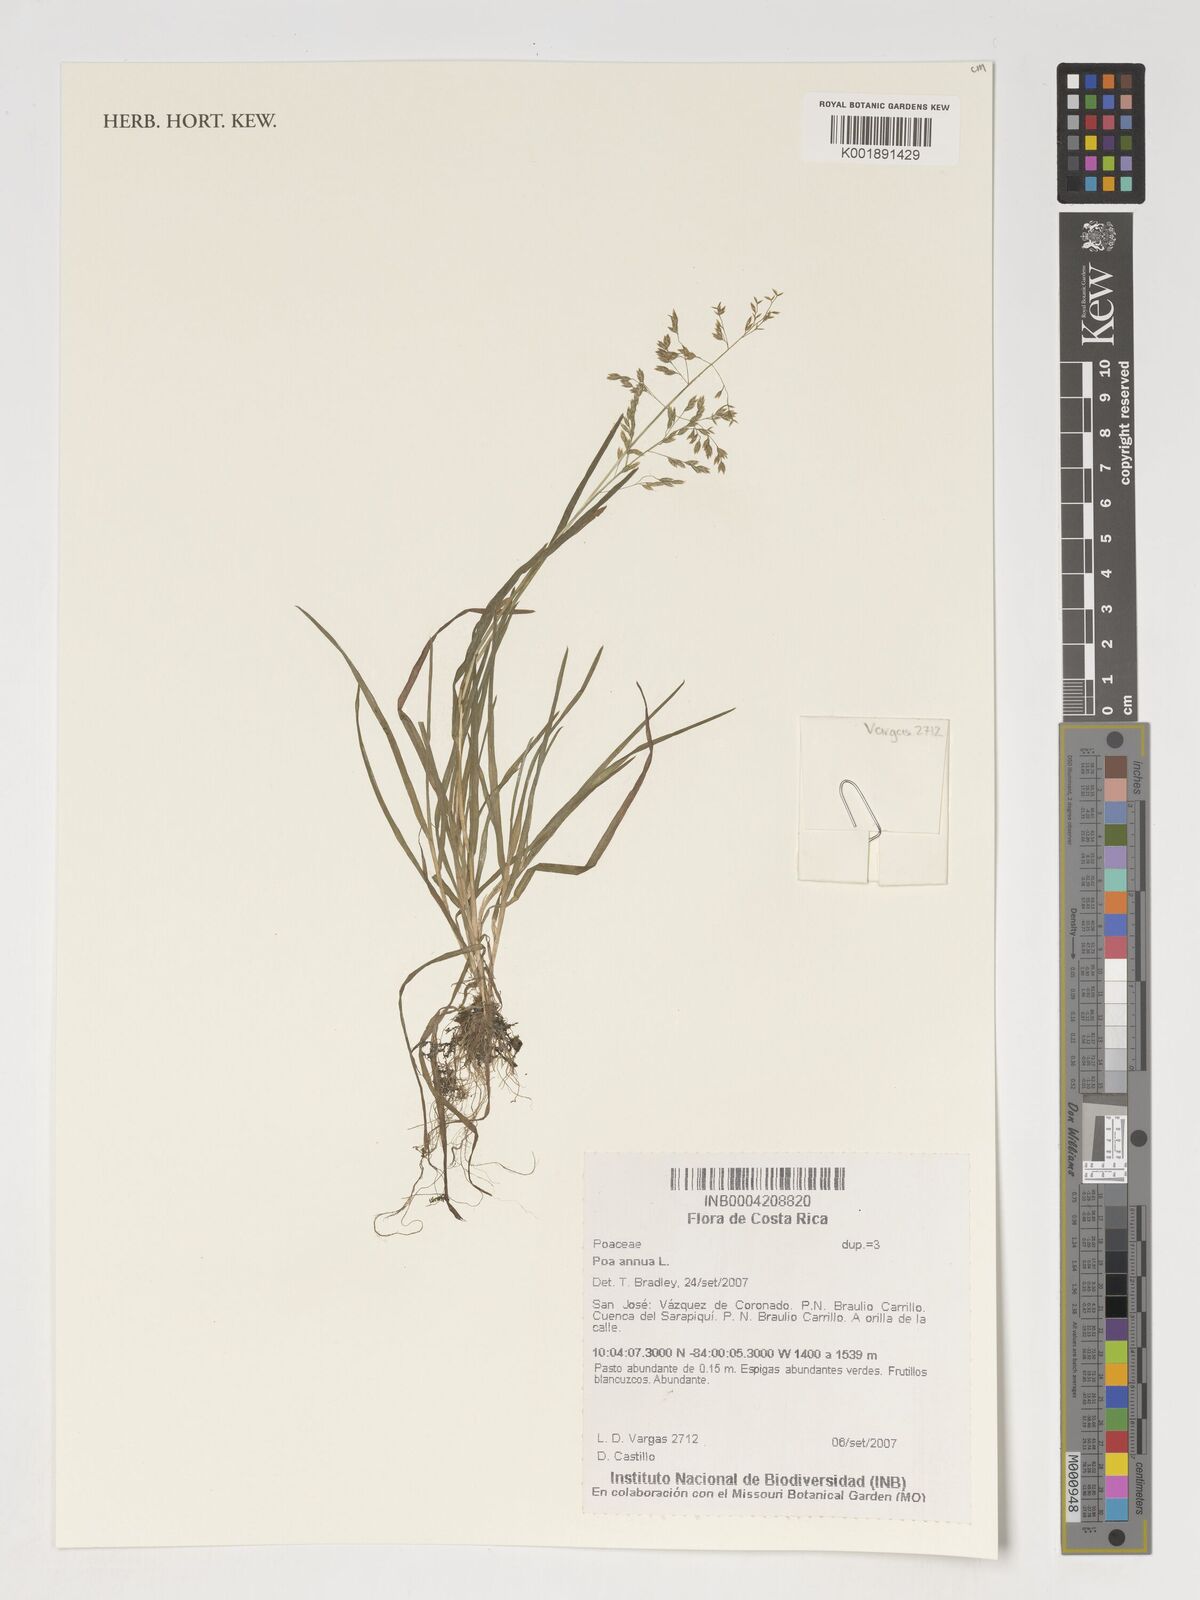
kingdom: Plantae
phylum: Tracheophyta
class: Liliopsida
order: Poales
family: Poaceae
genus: Poa
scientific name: Poa annua
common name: Annual bluegrass
